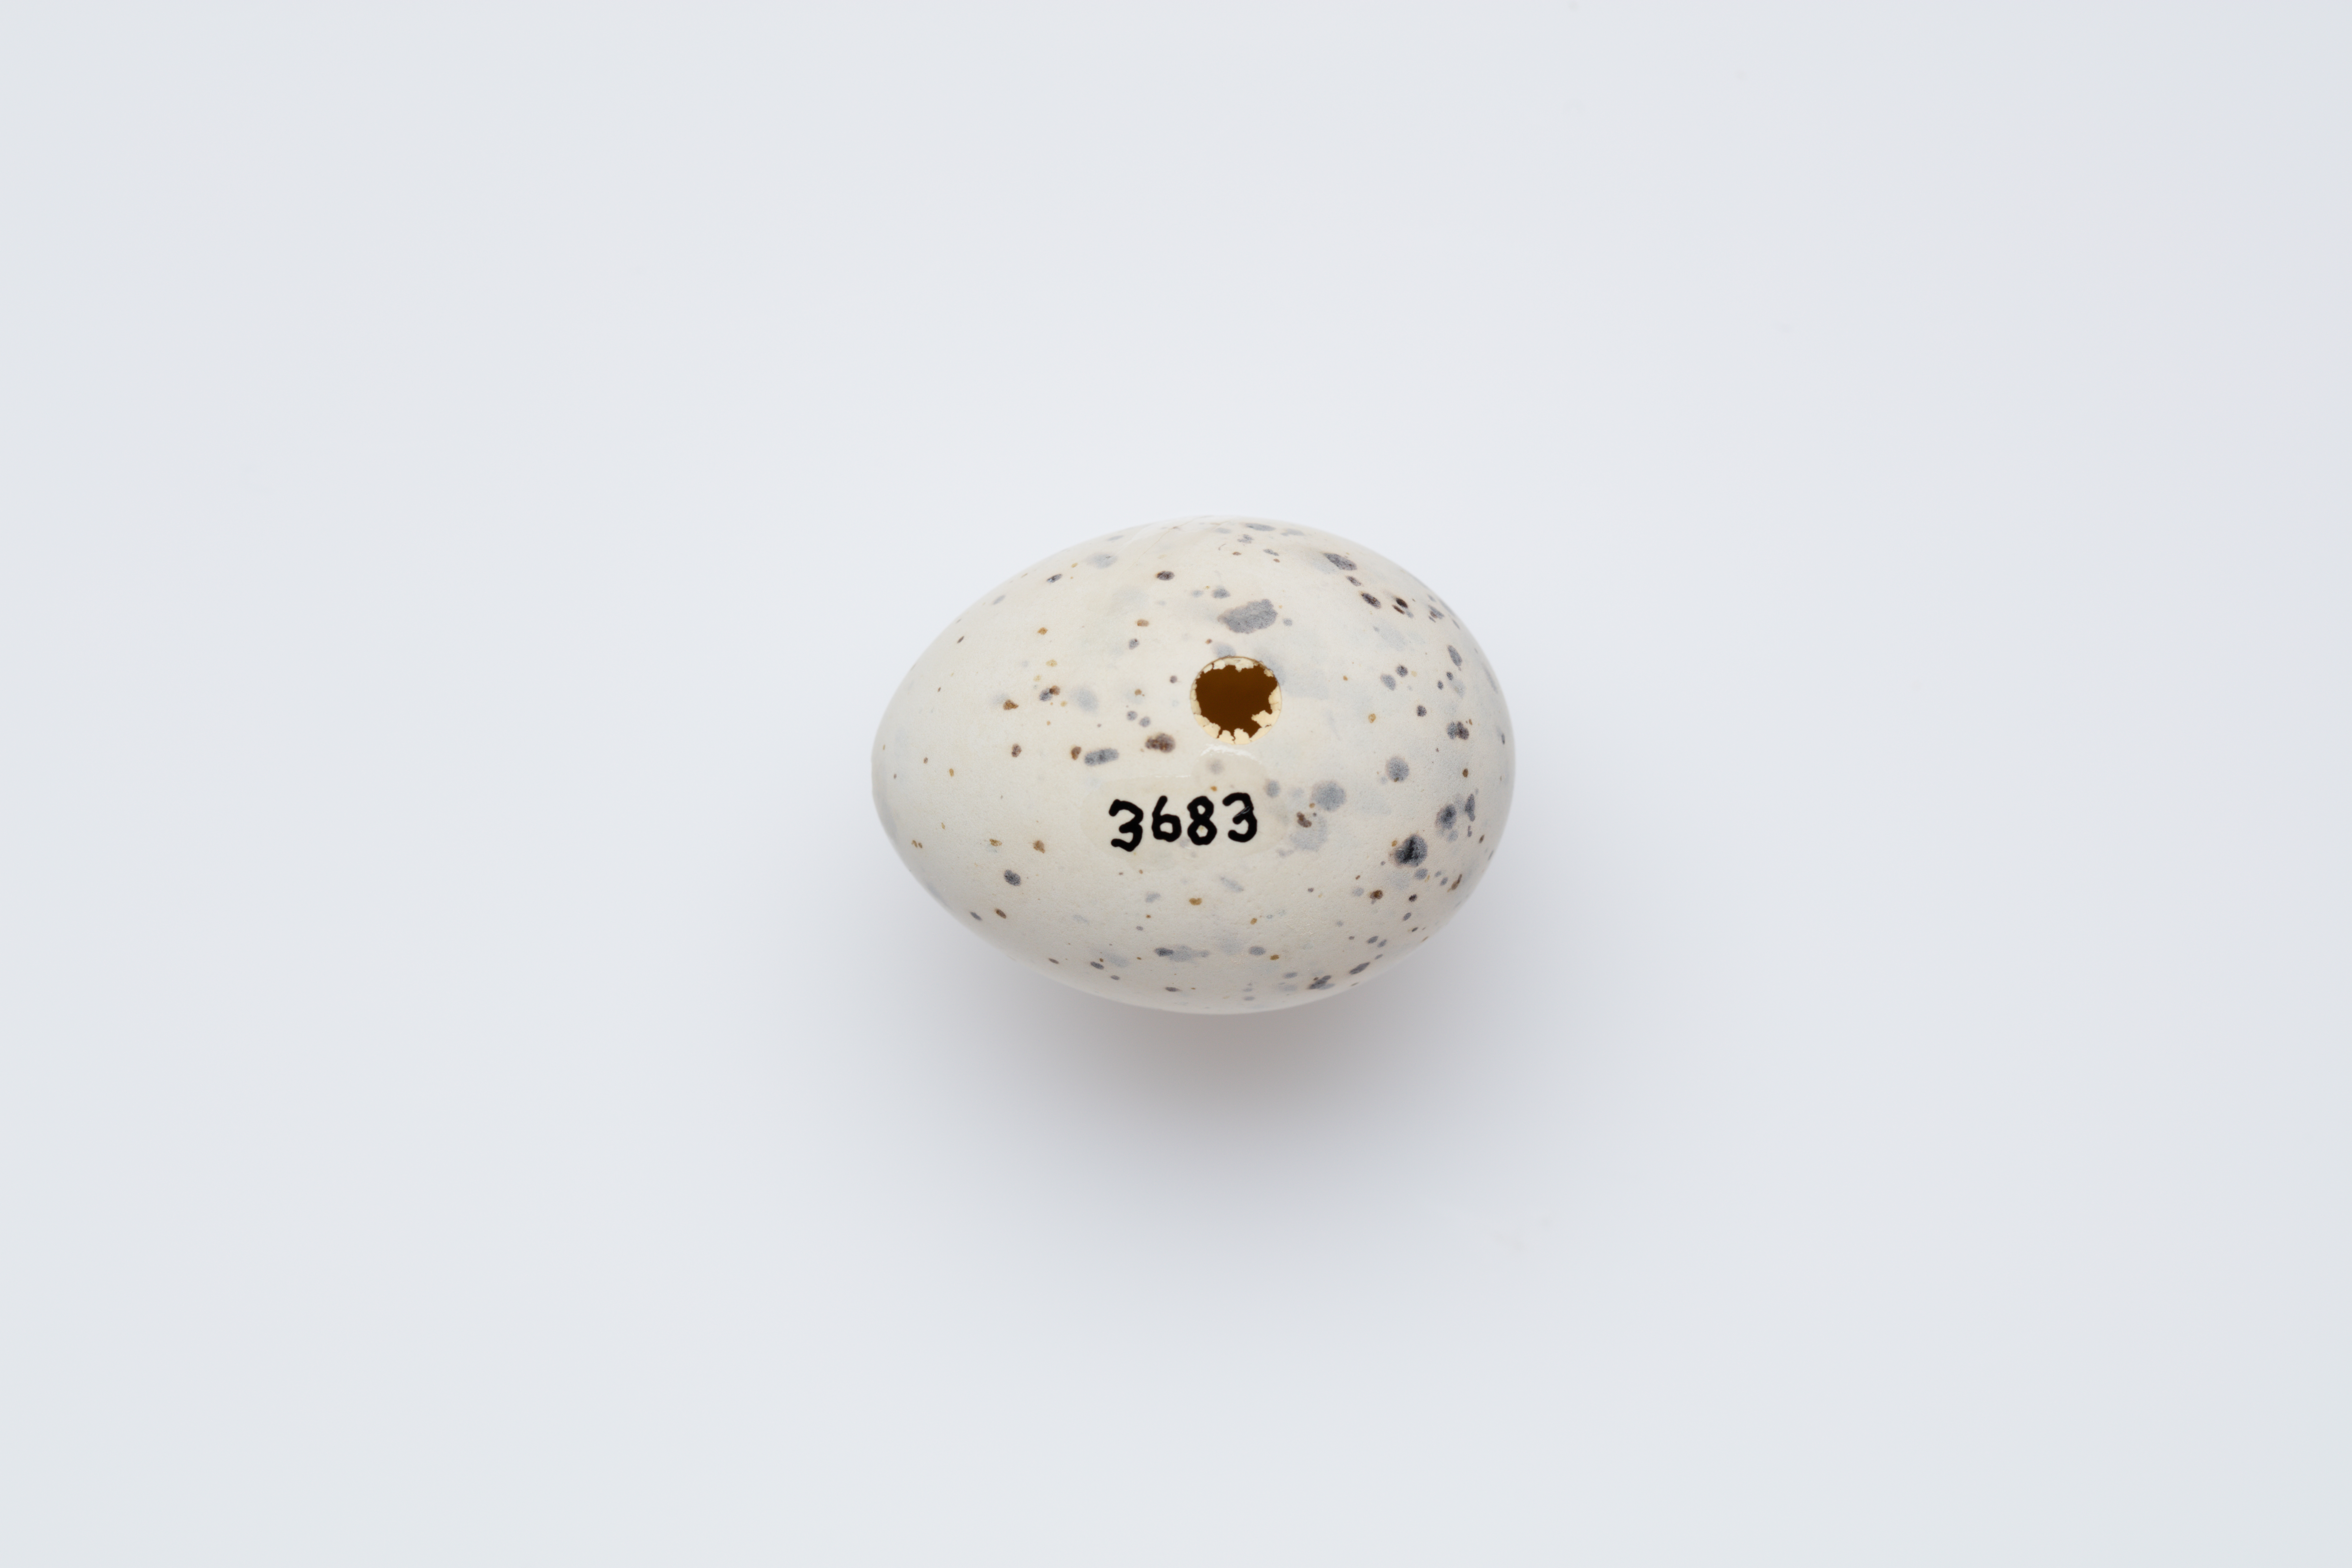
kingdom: Animalia
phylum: Chordata
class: Aves
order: Charadriiformes
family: Laridae
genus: Sternula
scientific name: Sternula nereis
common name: Fairy tern
